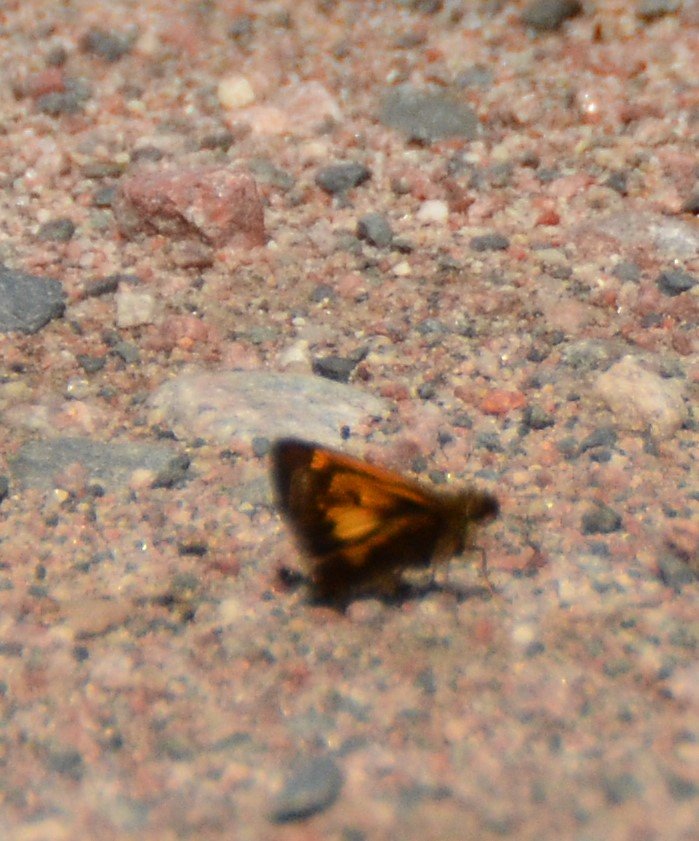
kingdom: Animalia
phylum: Arthropoda
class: Insecta
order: Lepidoptera
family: Hesperiidae
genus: Lon
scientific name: Lon hobomok
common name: Hobomok Skipper
